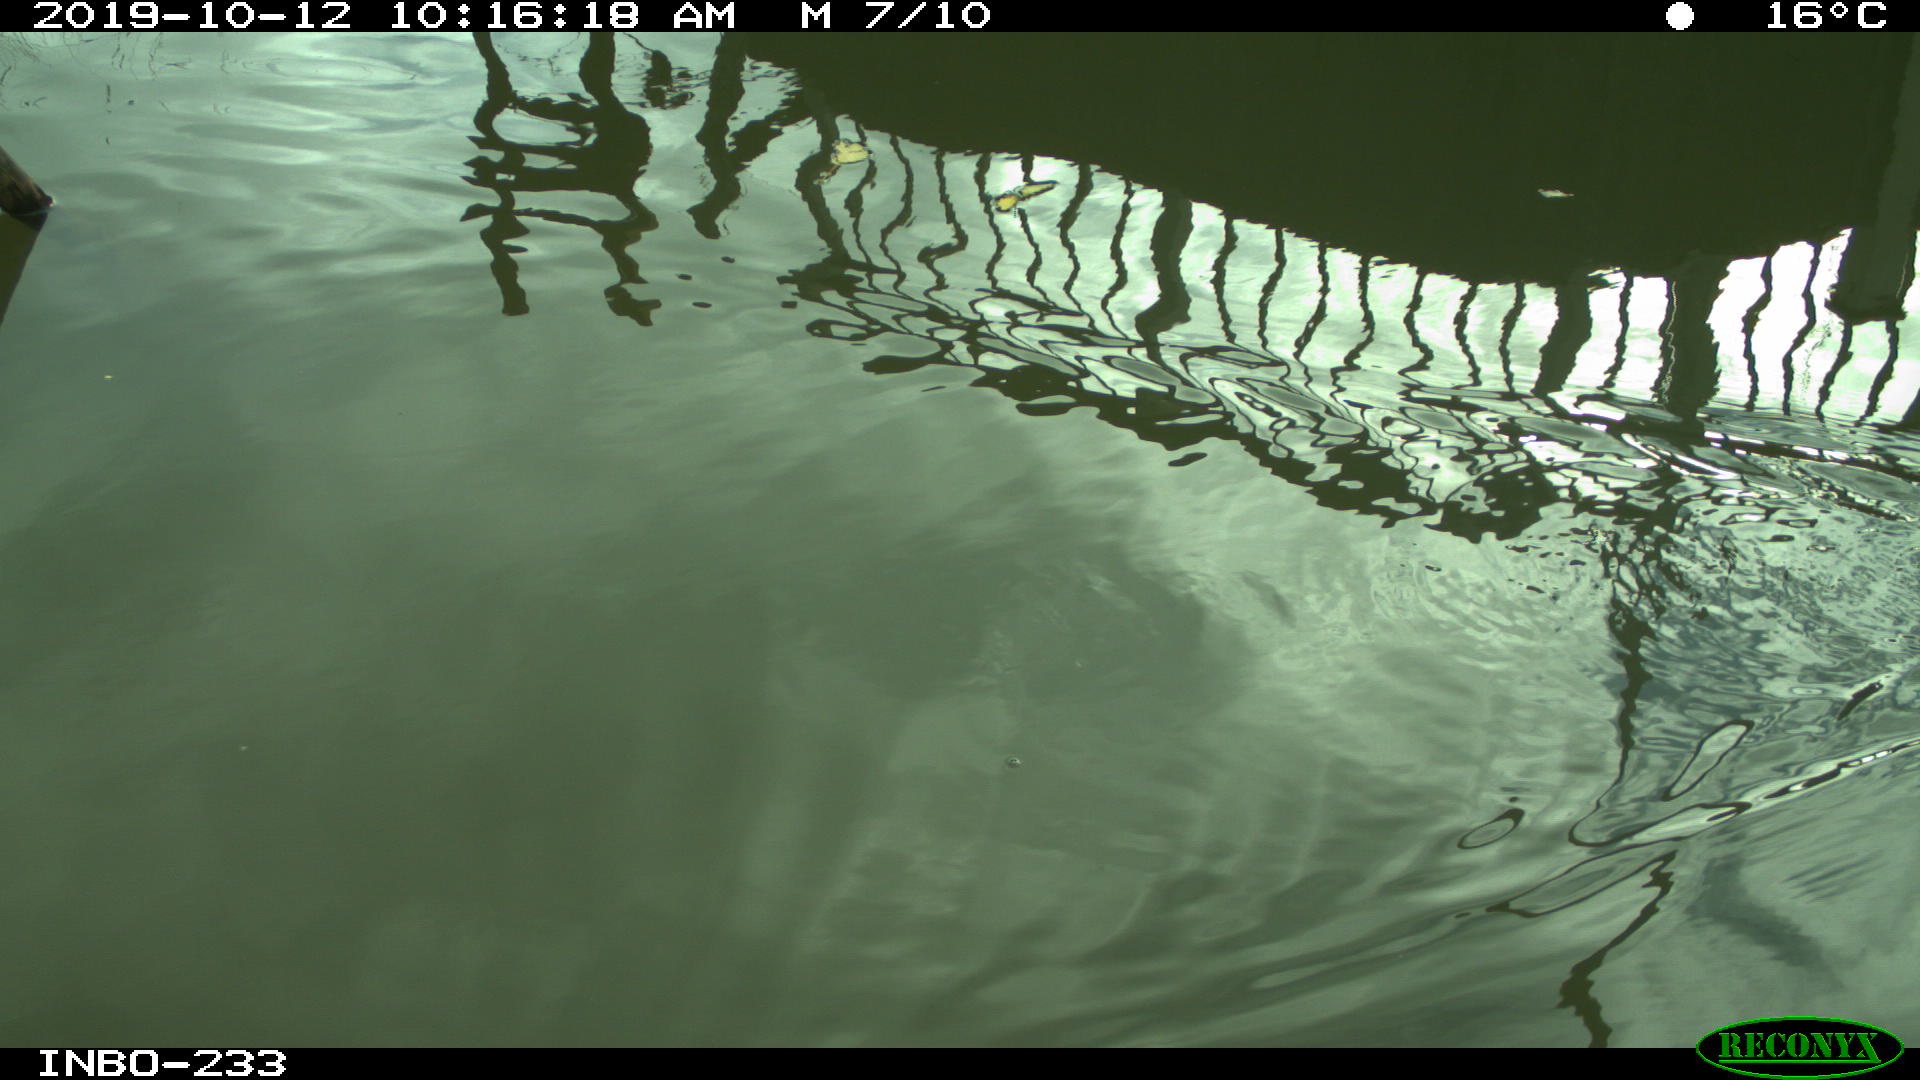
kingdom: Animalia
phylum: Chordata
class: Aves
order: Gruiformes
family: Rallidae
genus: Gallinula
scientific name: Gallinula chloropus
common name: Common moorhen
